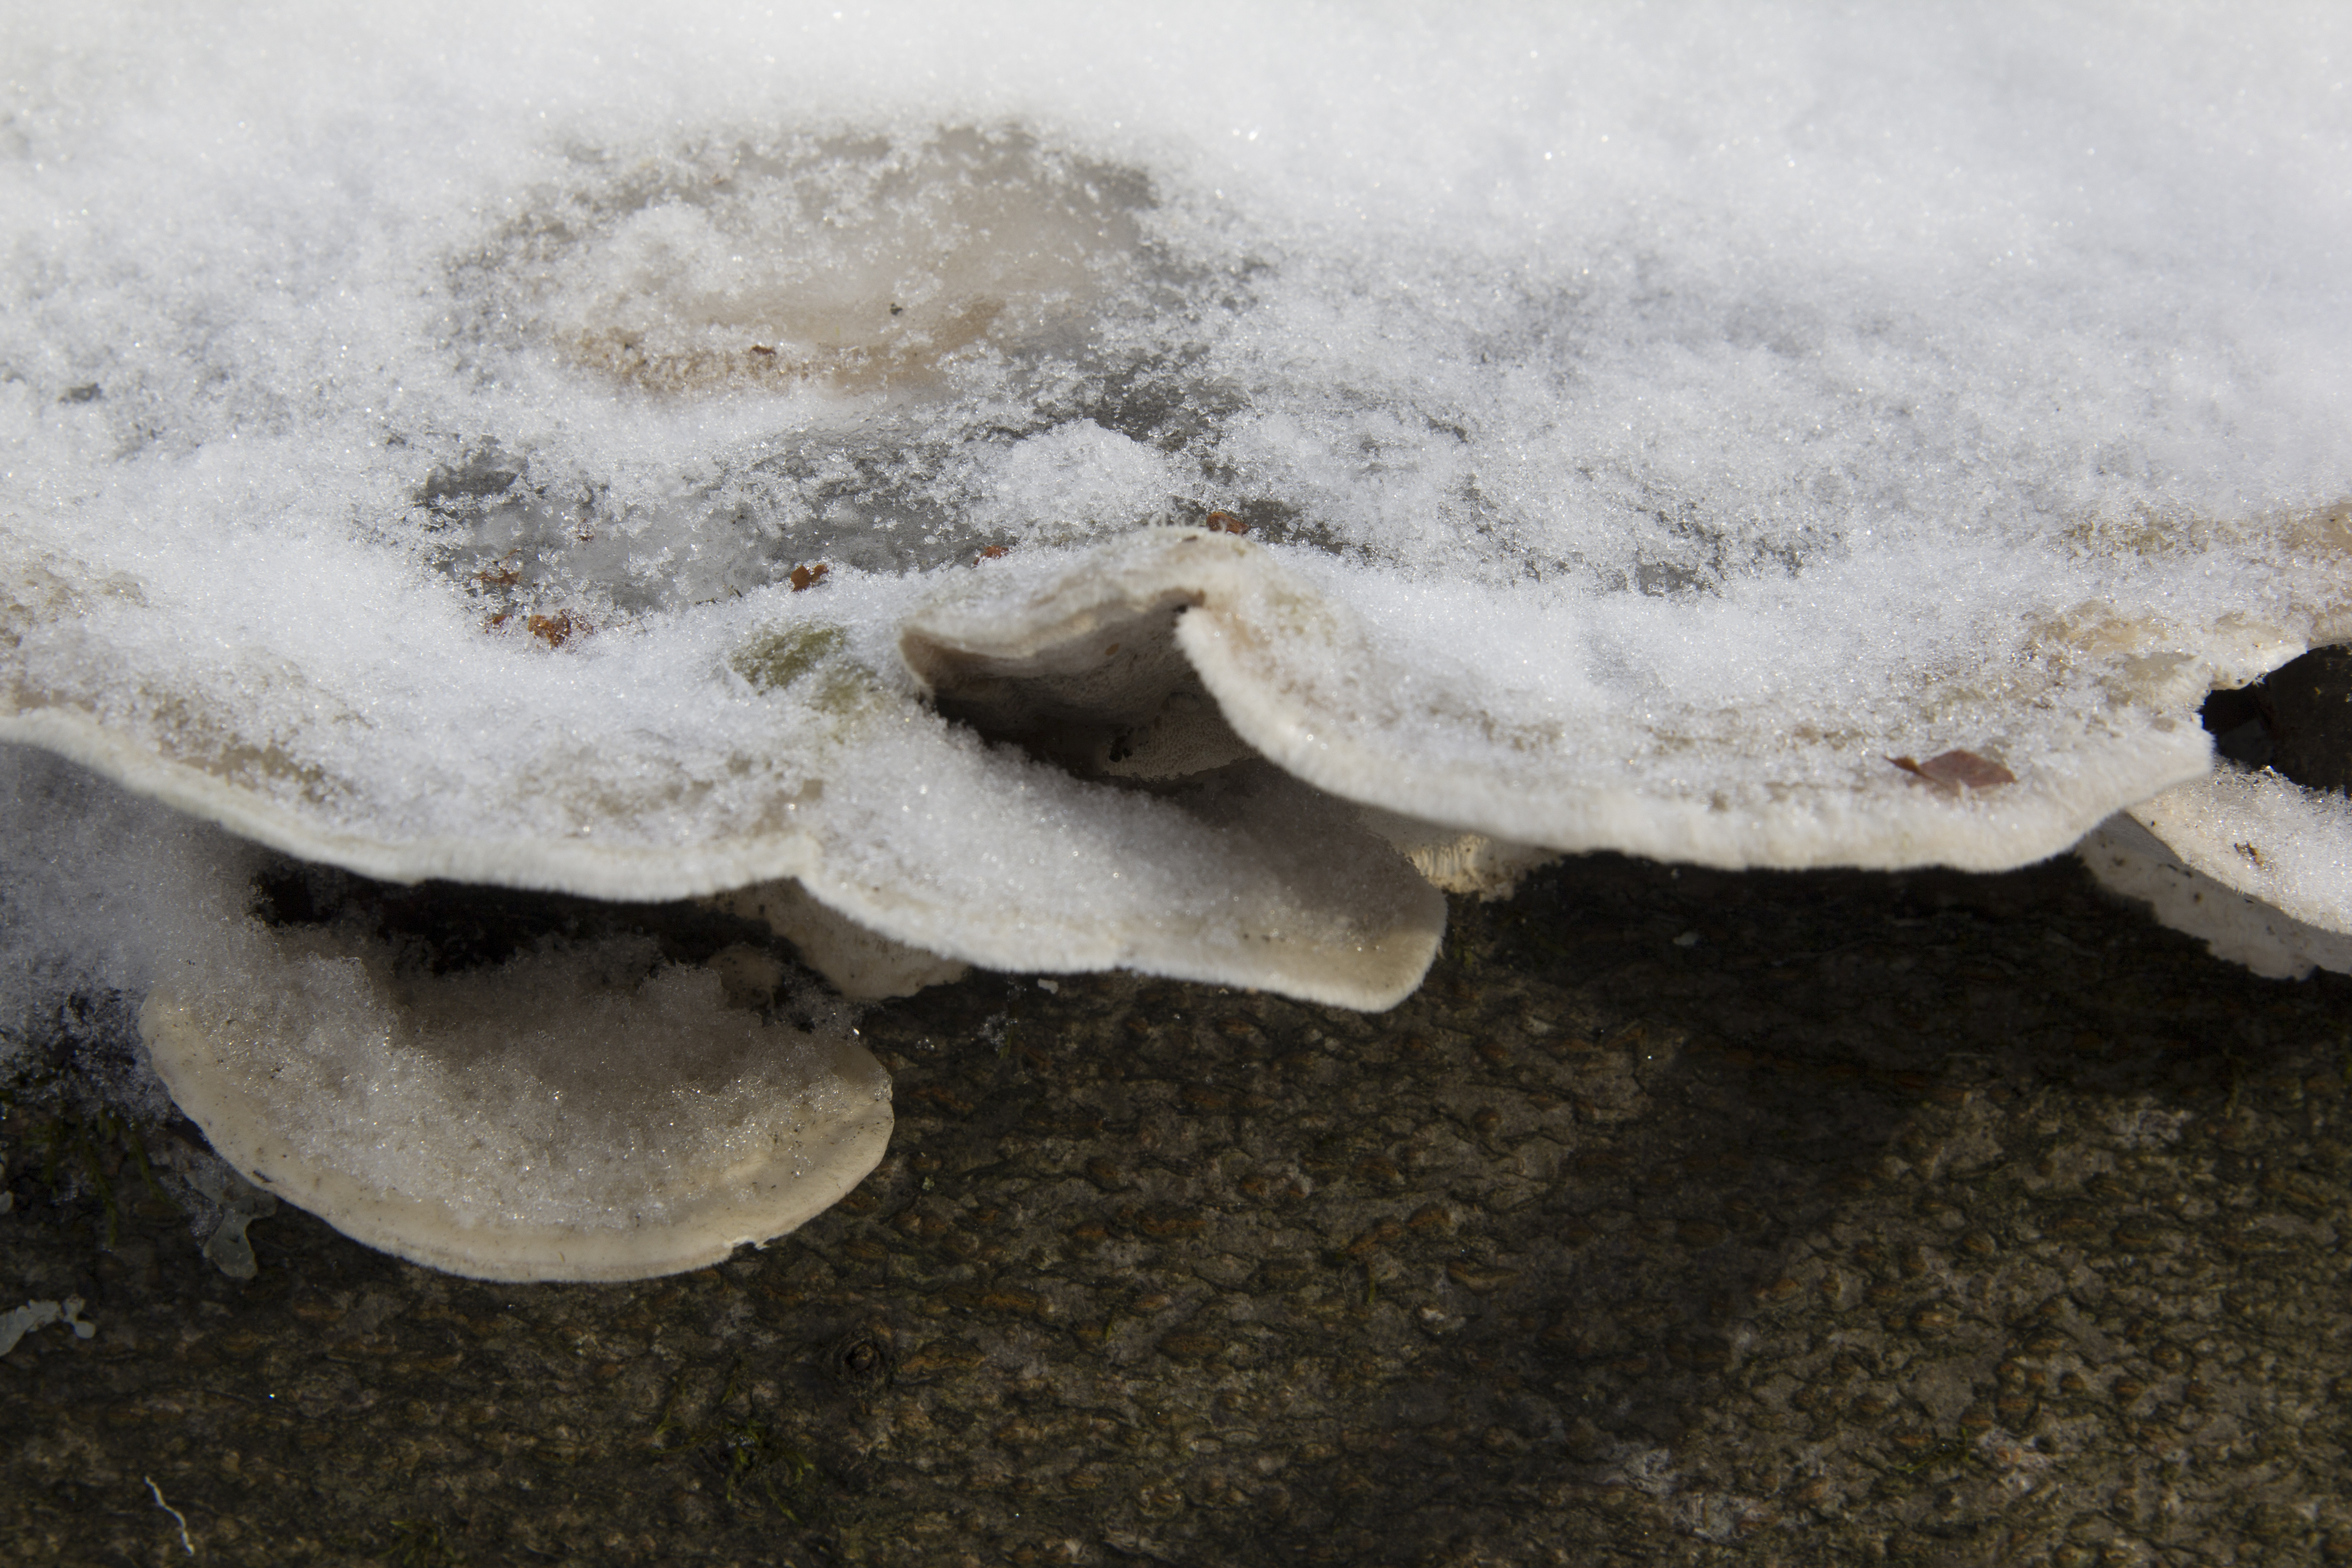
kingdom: Fungi
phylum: Basidiomycota
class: Agaricomycetes
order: Polyporales
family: Polyporaceae
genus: Trametes
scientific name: Trametes
